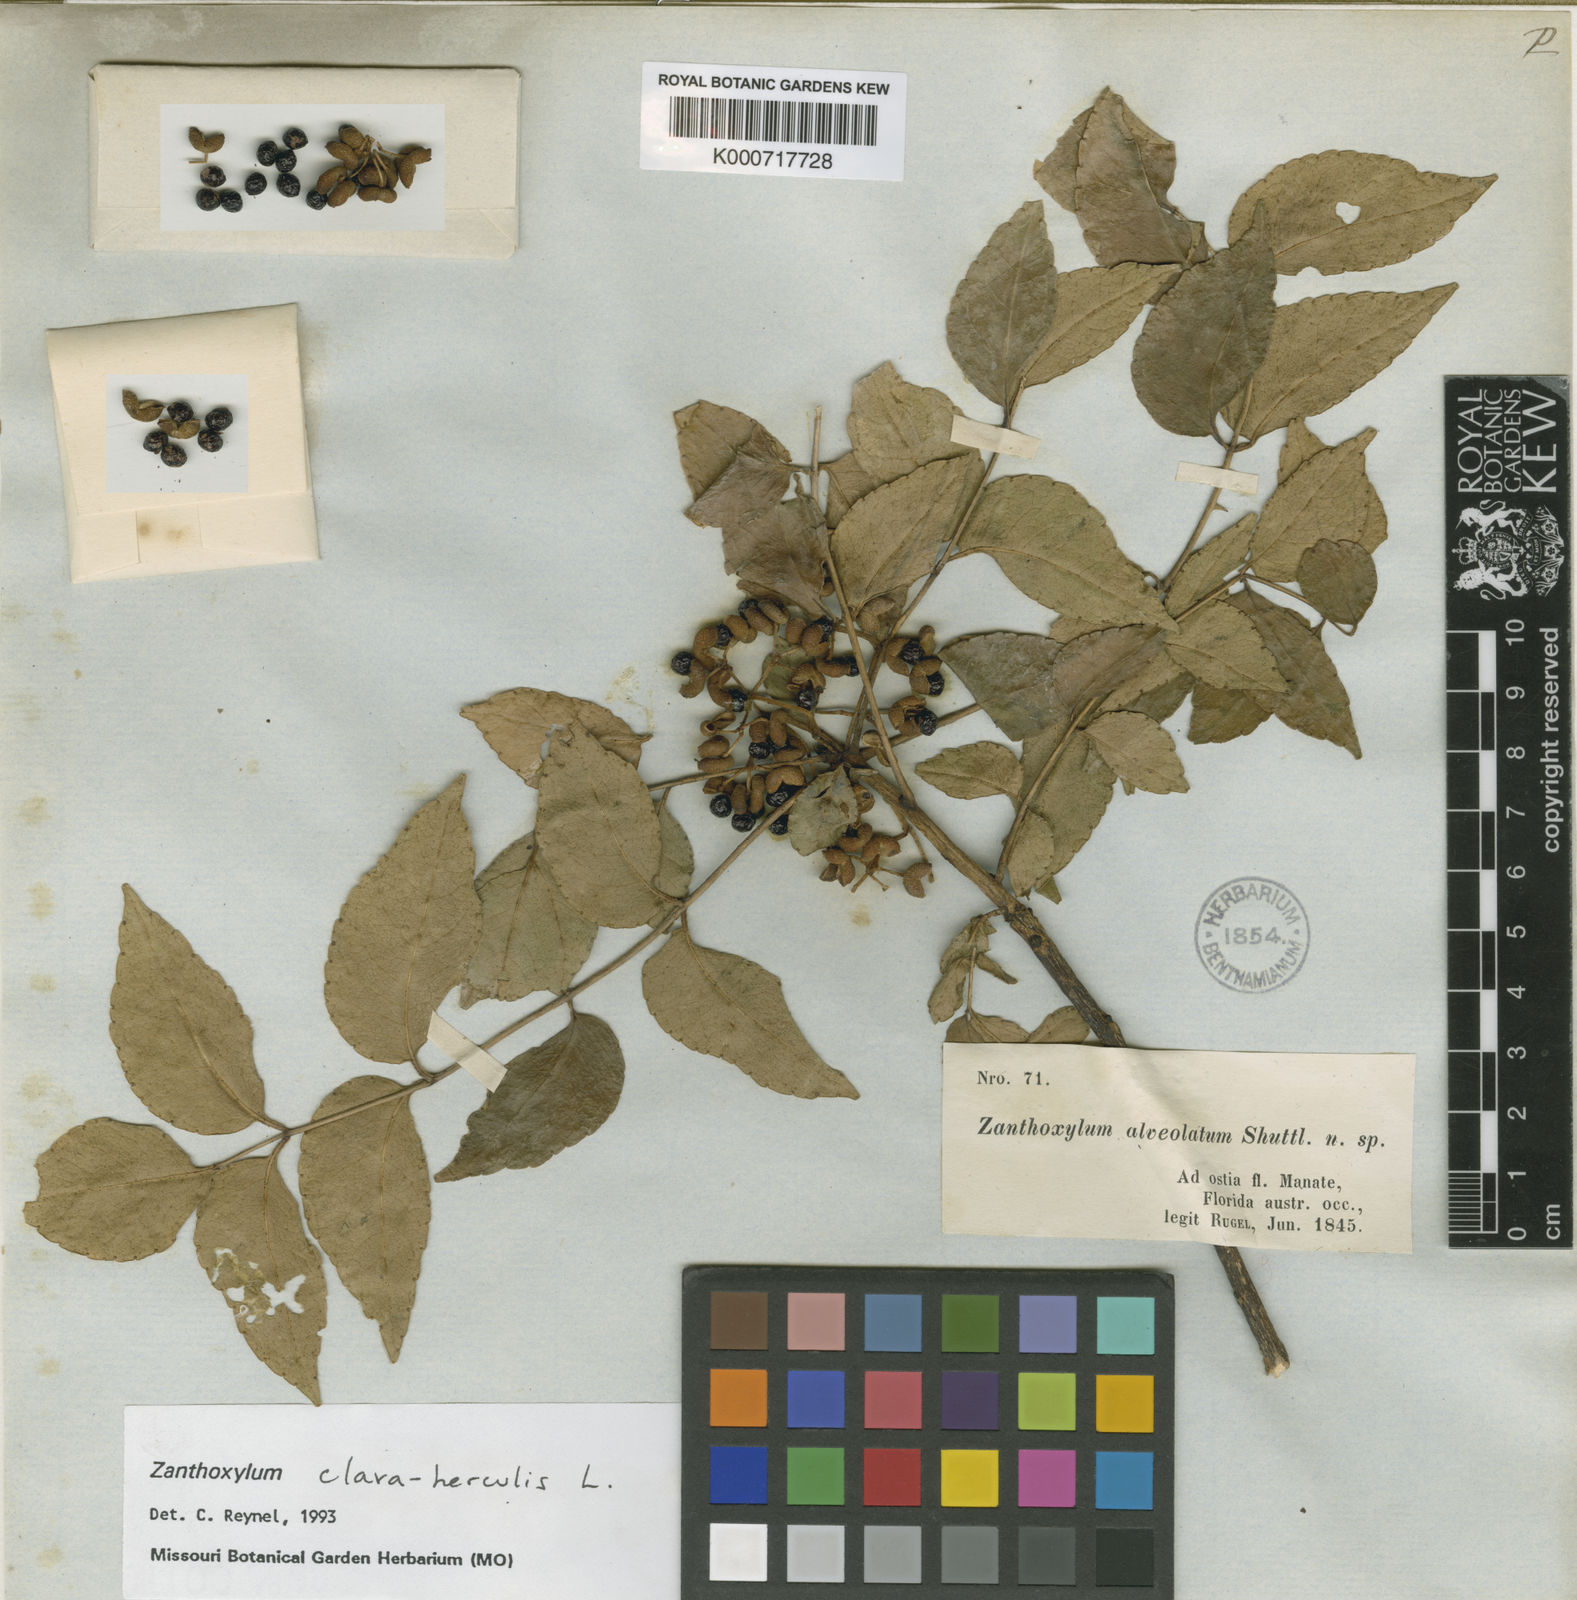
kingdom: Plantae
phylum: Tracheophyta
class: Magnoliopsida
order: Sapindales
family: Rutaceae
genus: Zanthoxylum
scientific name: Zanthoxylum clava-herculis
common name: Hercules'-club
